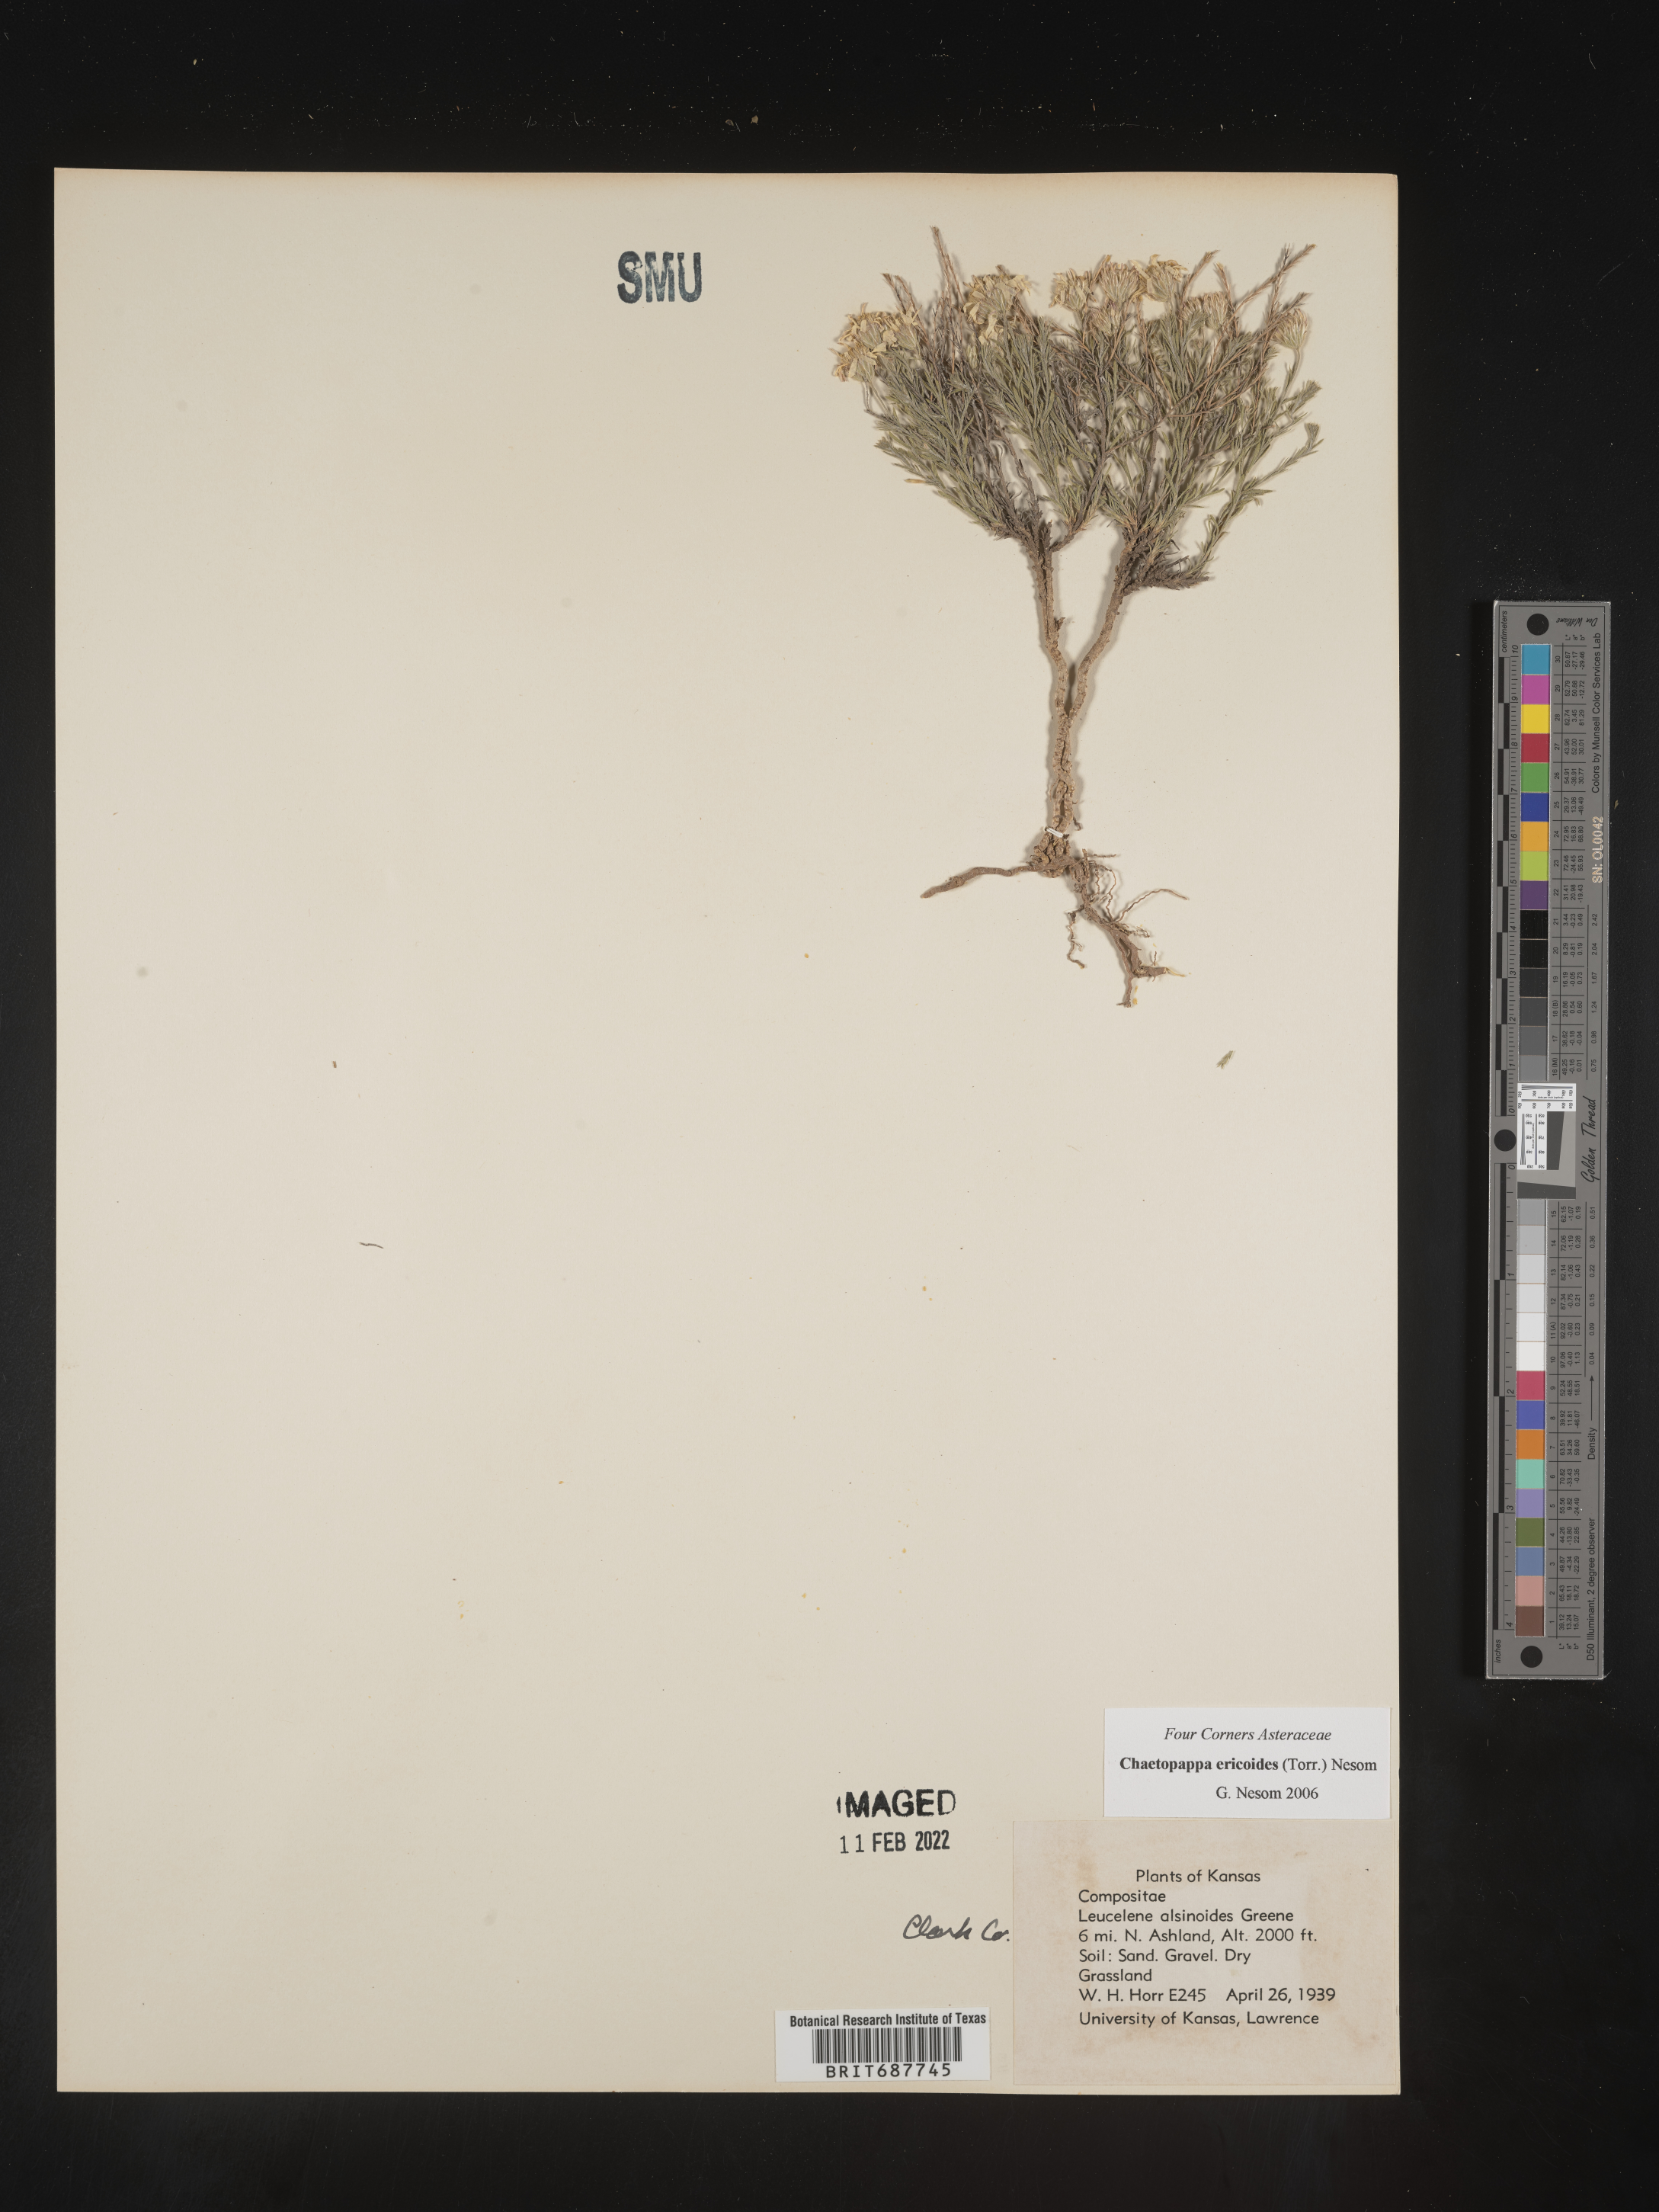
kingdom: Plantae
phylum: Tracheophyta
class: Magnoliopsida
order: Asterales
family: Asteraceae
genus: Chaetopappa
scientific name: Chaetopappa ericoides
